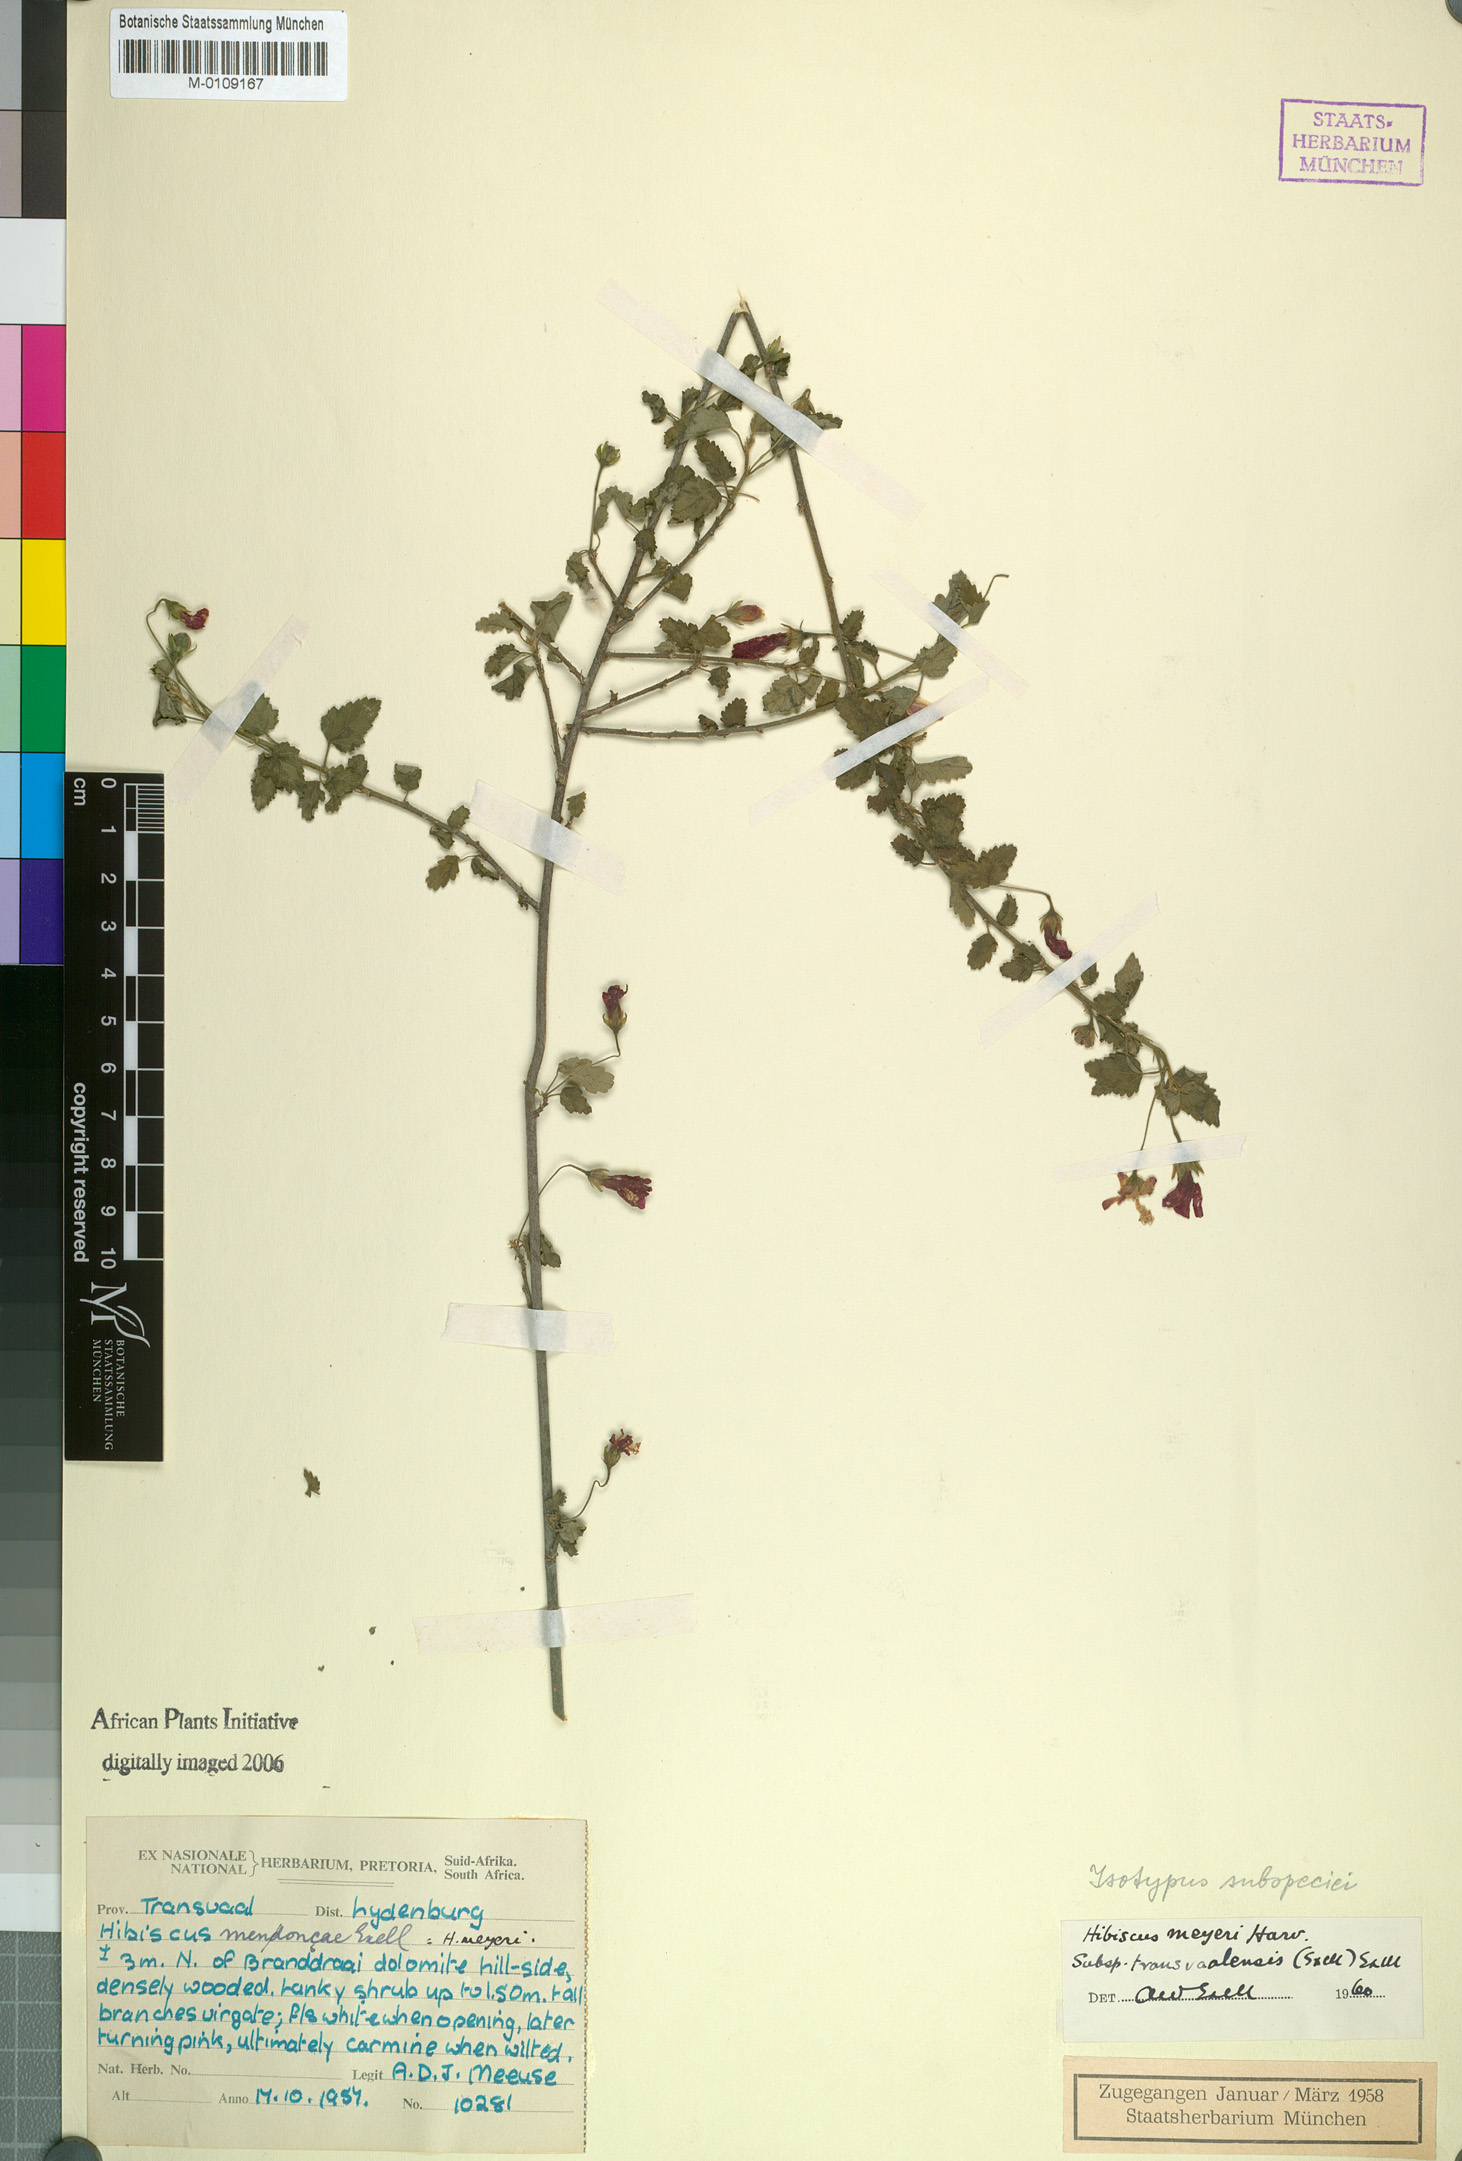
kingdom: Plantae
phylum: Tracheophyta
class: Magnoliopsida
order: Malvales
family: Malvaceae
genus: Hibiscus
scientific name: Hibiscus meyeri
